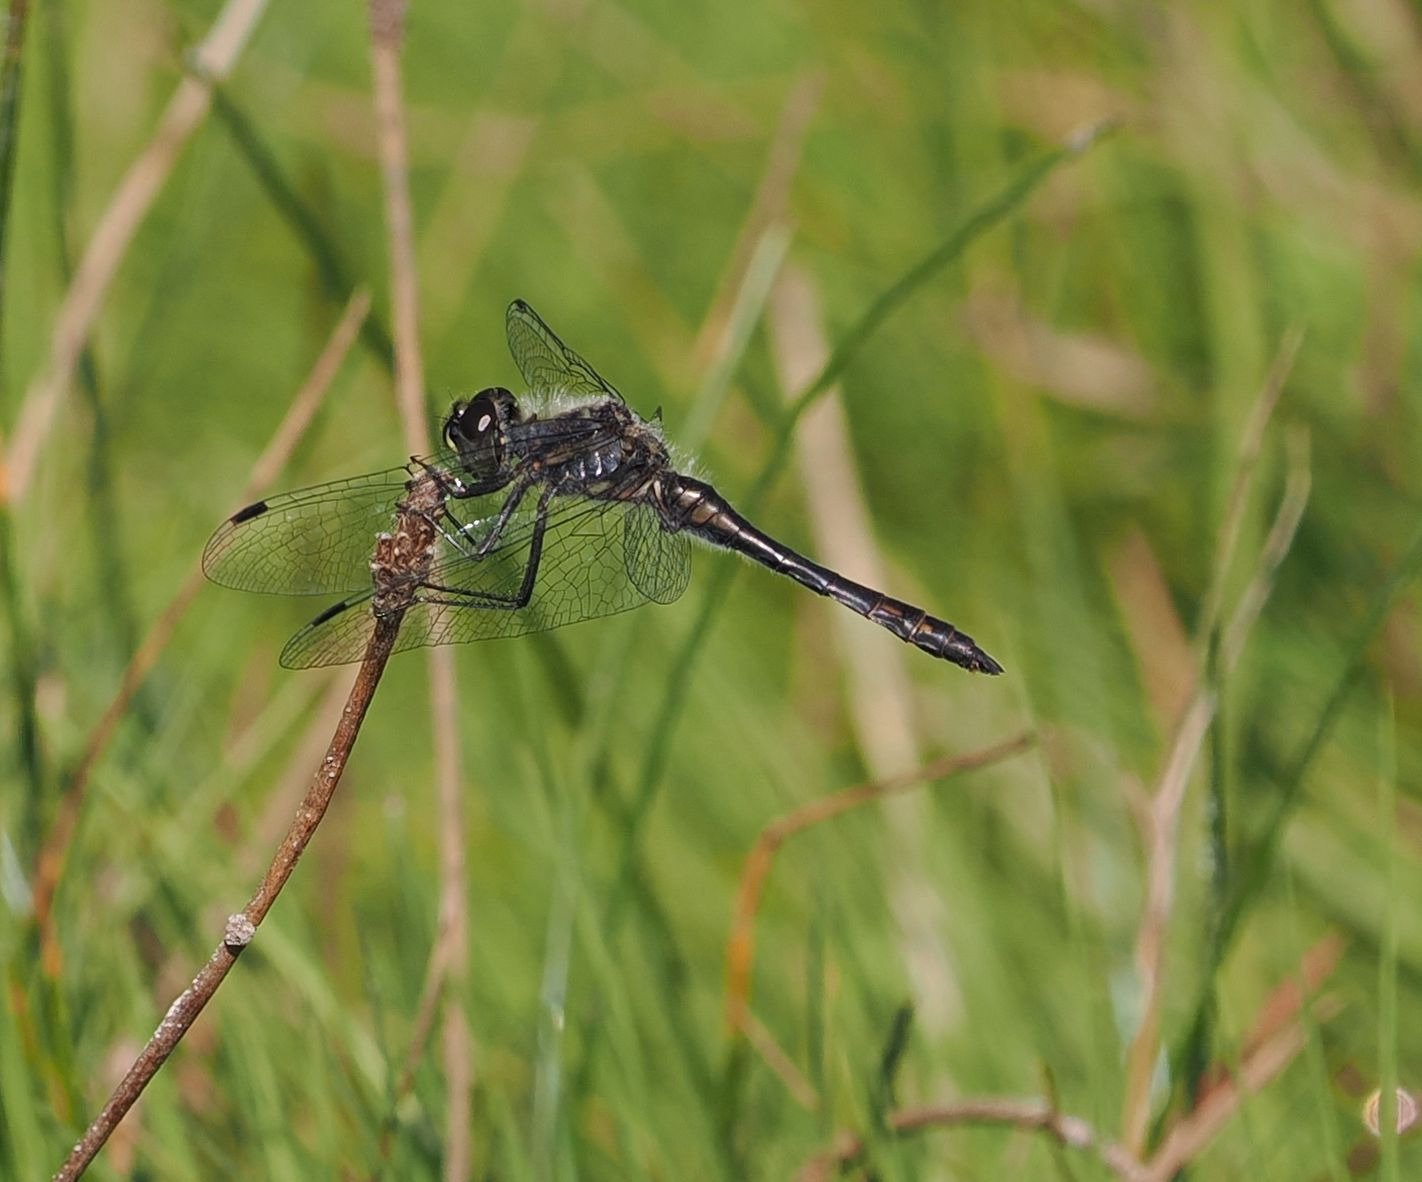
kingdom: Animalia
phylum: Arthropoda
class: Insecta
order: Odonata
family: Libellulidae
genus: Sympetrum
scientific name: Sympetrum danae
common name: Sort hedelibel
